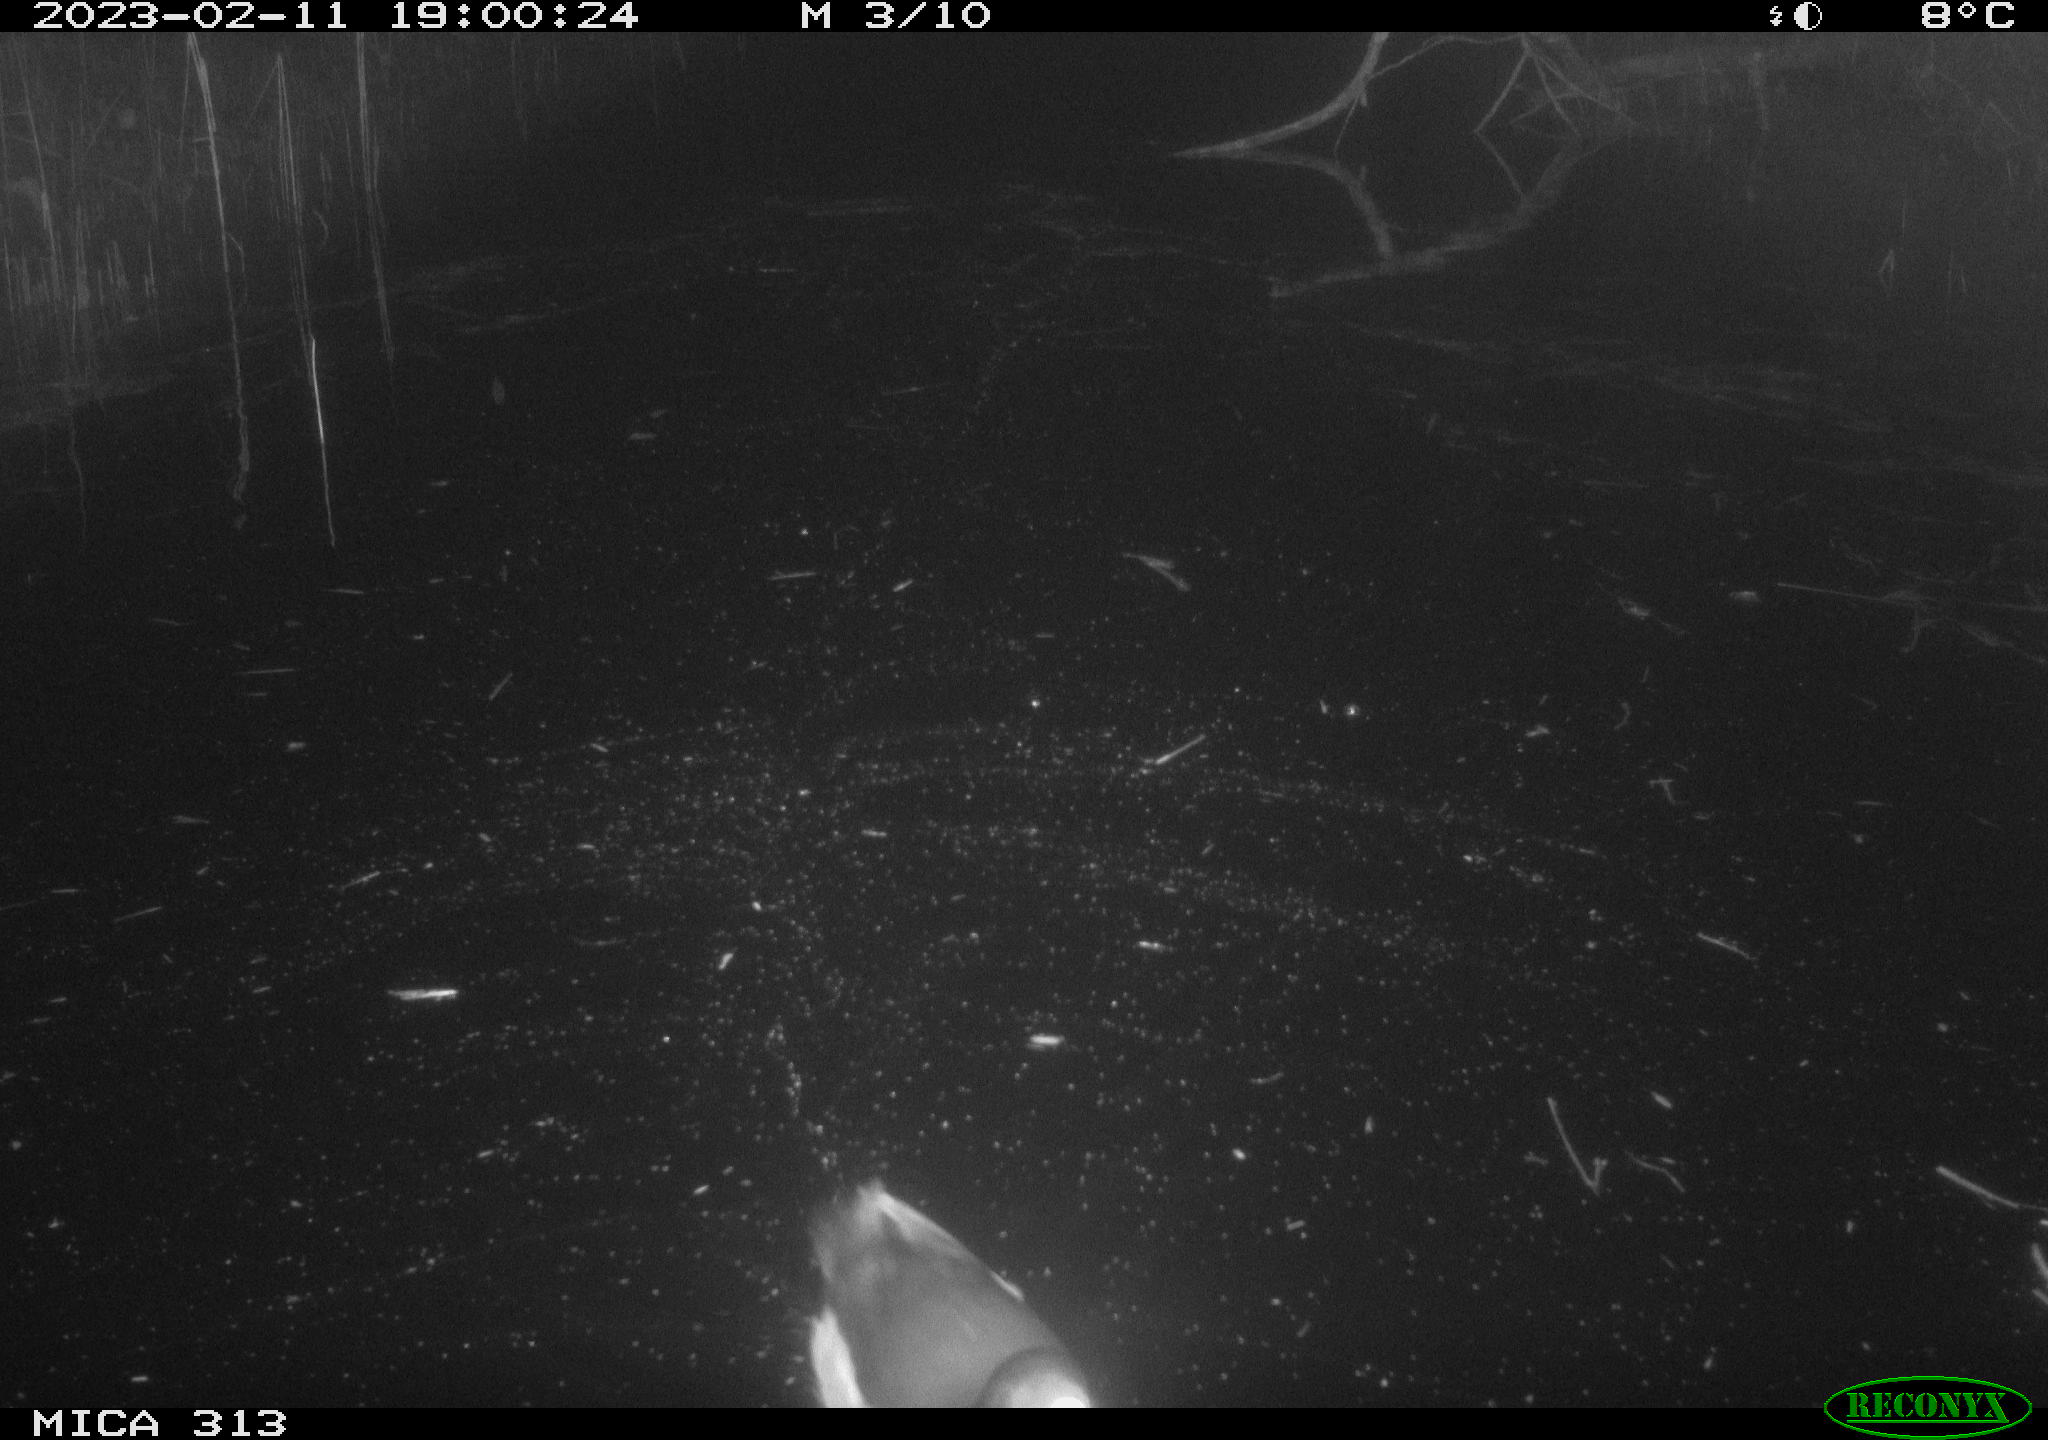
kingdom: Animalia
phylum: Chordata
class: Aves
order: Gruiformes
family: Rallidae
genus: Fulica
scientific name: Fulica atra
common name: Eurasian coot
